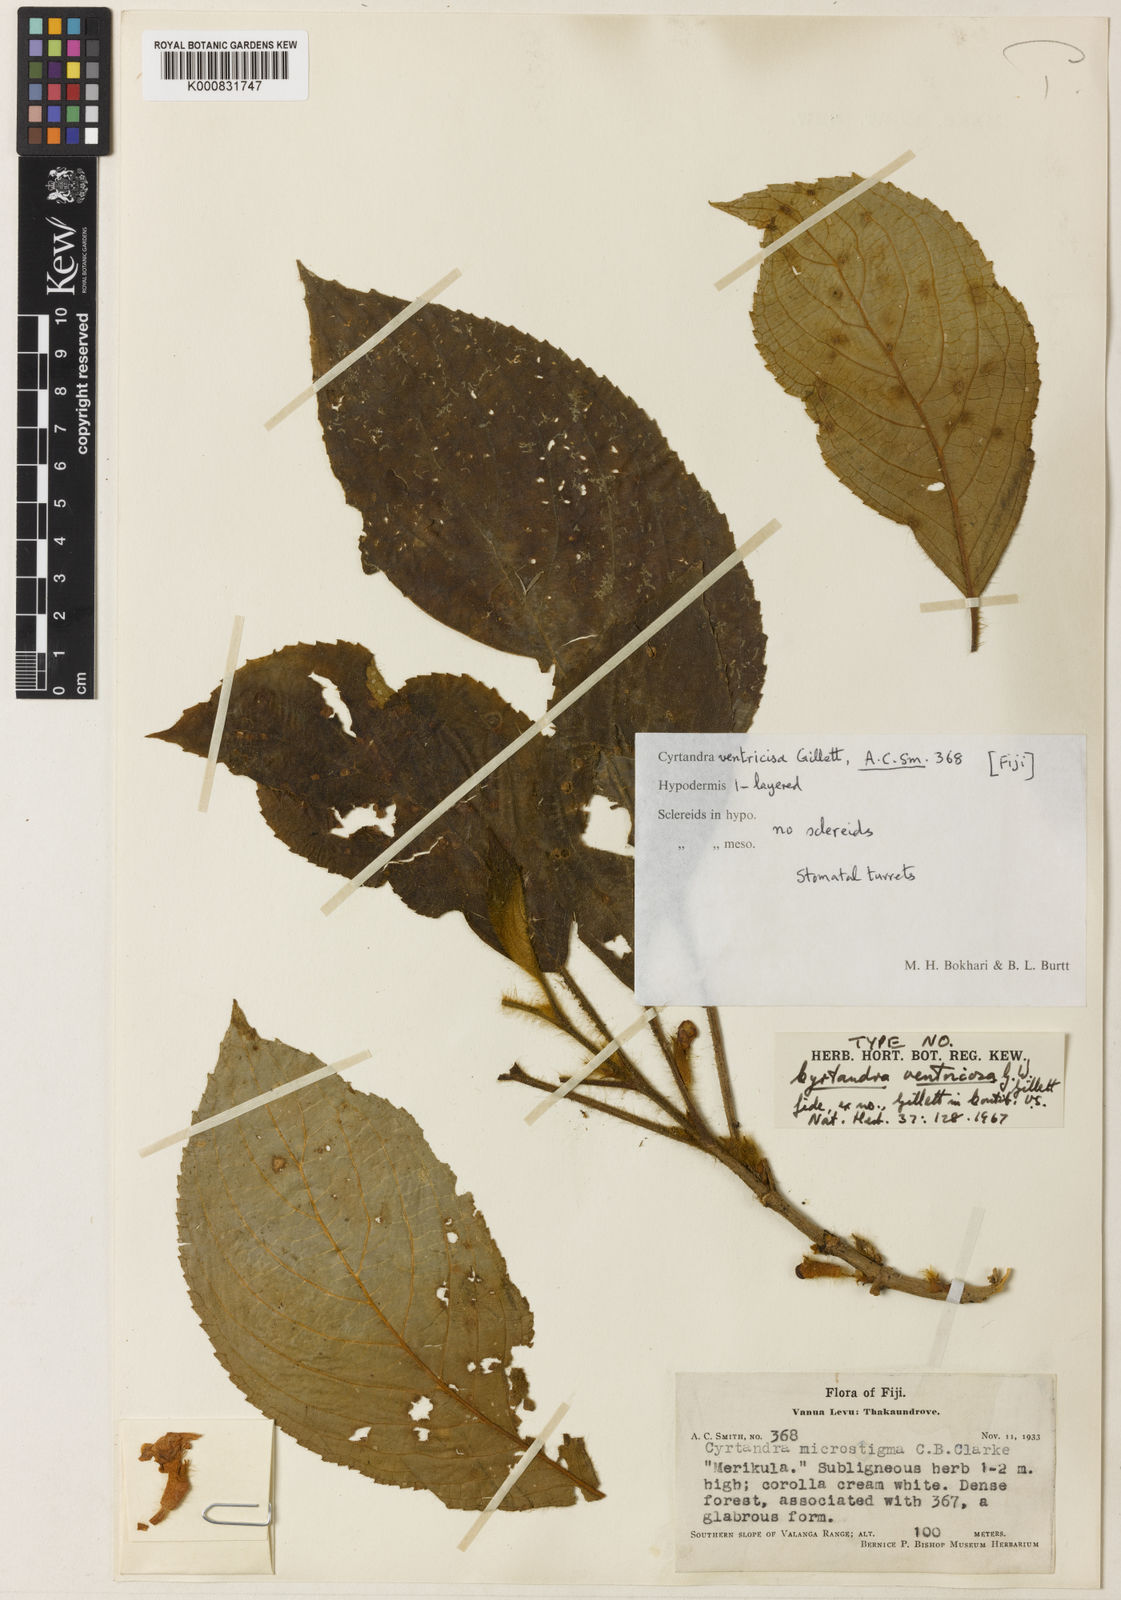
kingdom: Plantae
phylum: Tracheophyta
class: Magnoliopsida
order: Lamiales
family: Gesneriaceae
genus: Cyrtandra
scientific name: Cyrtandra ventricosa
